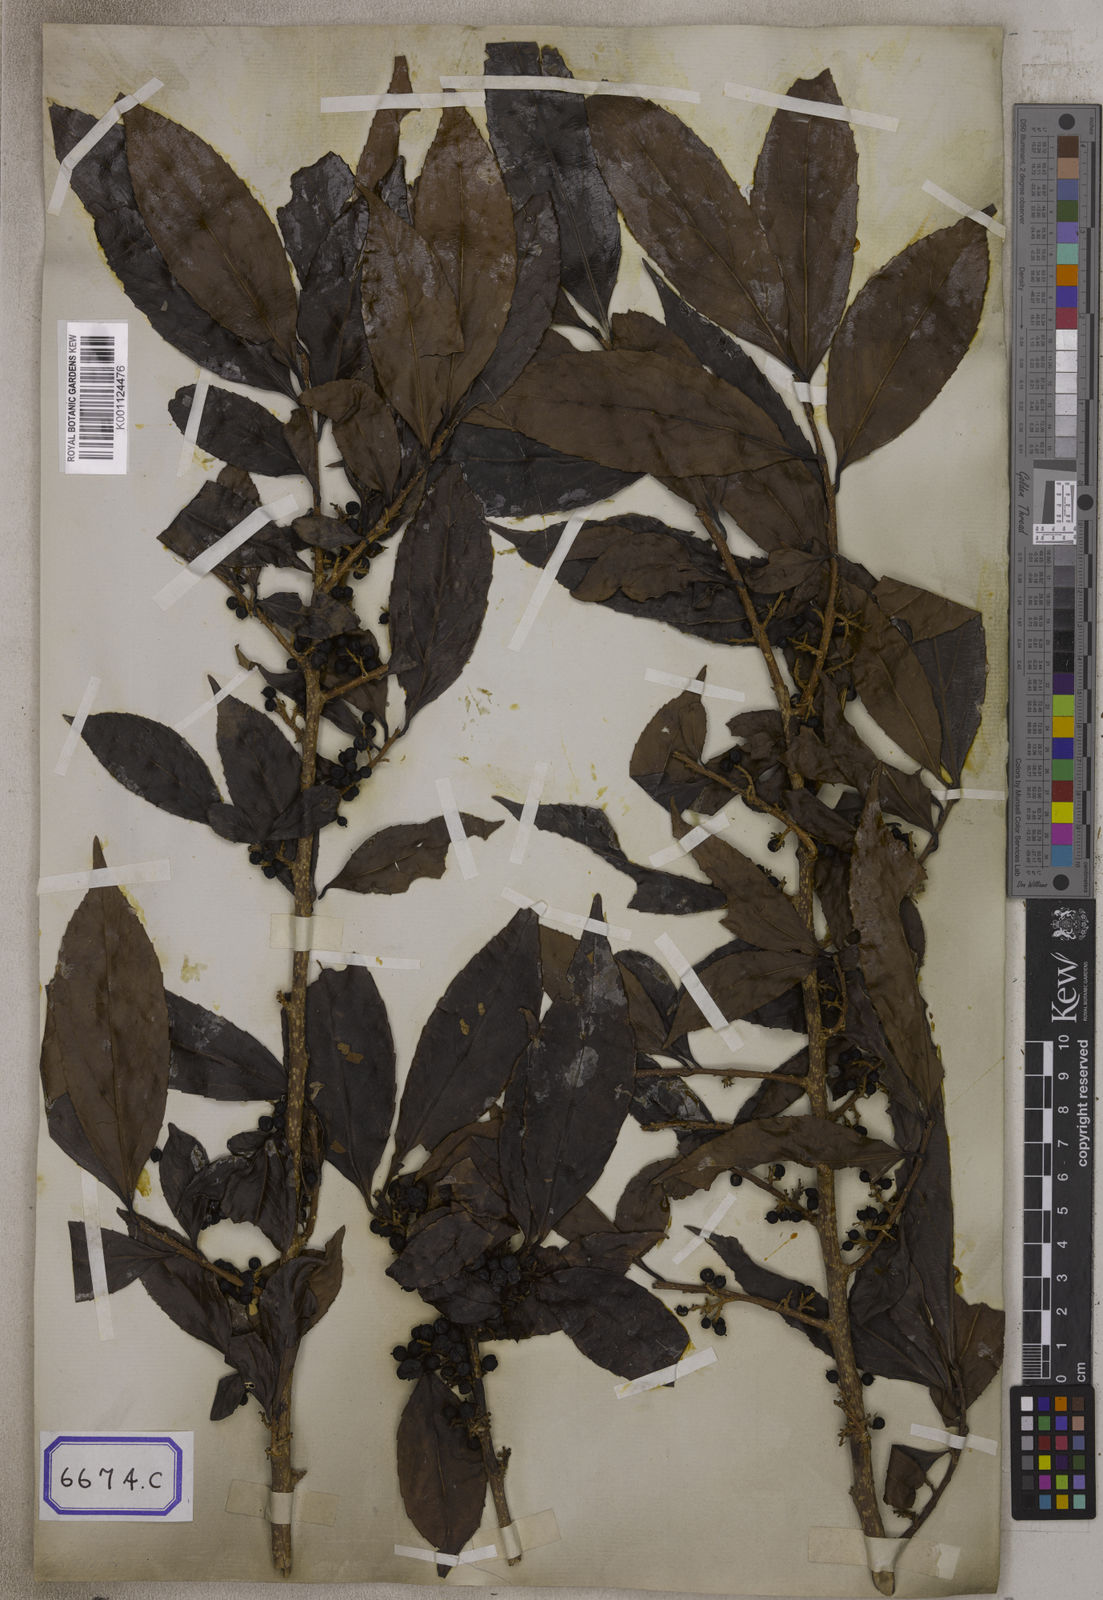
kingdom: Plantae
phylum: Tracheophyta
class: Magnoliopsida
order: Malpighiales
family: Salicaceae
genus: Flacourtia
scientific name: Flacourtia
